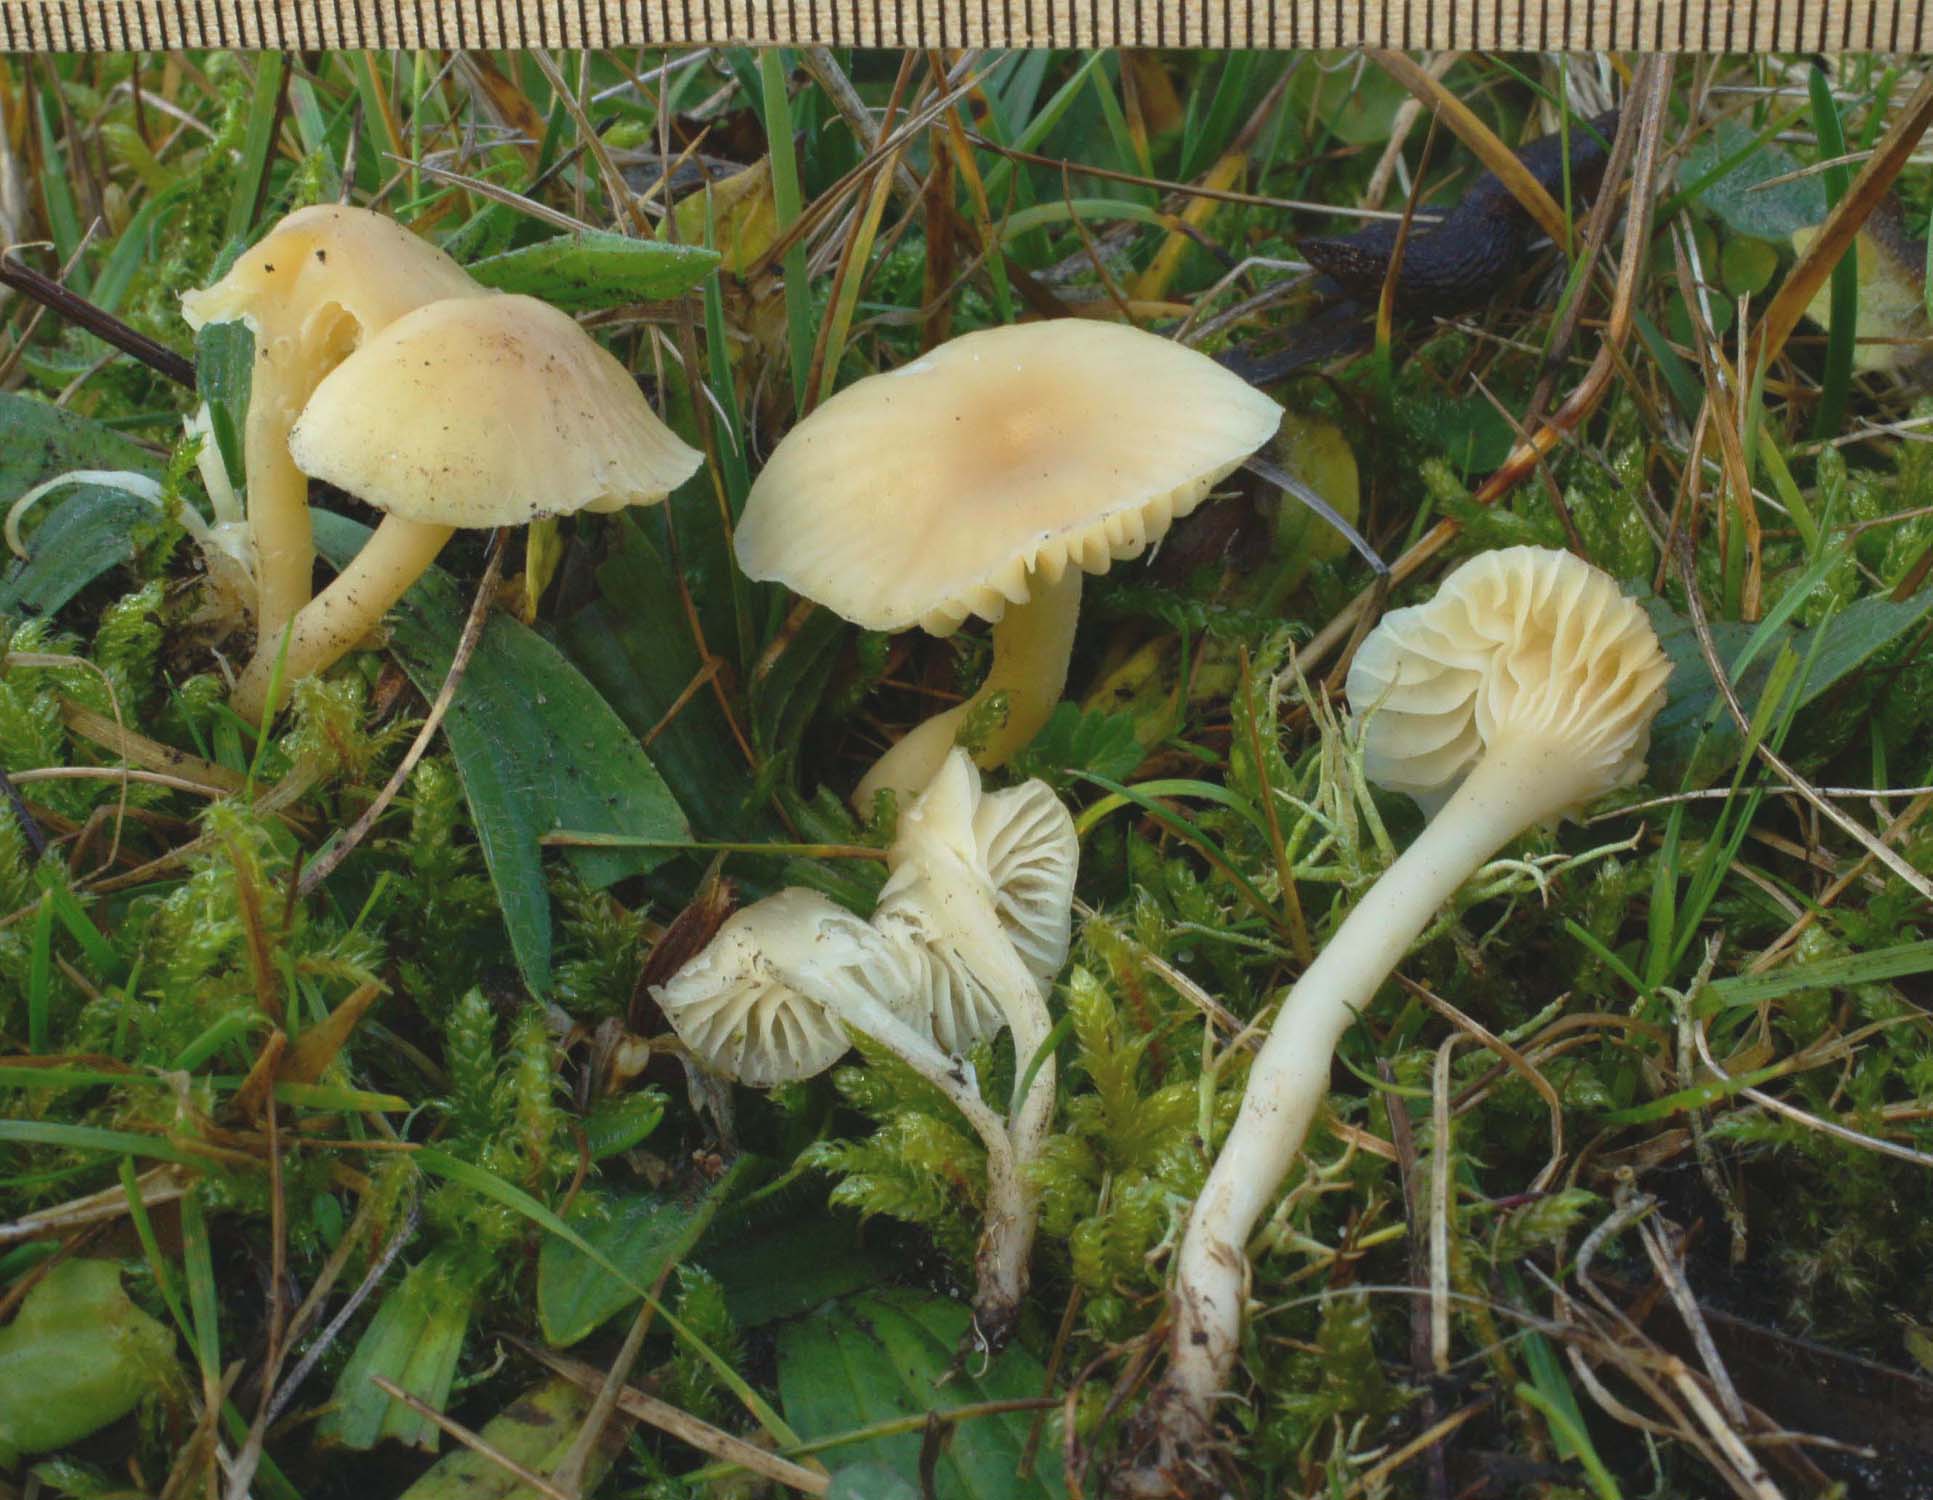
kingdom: Fungi
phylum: Basidiomycota
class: Agaricomycetes
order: Agaricales
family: Hygrophoraceae
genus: Cuphophyllus
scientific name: Cuphophyllus russocoriaceus
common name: ruslæder-vokshat
